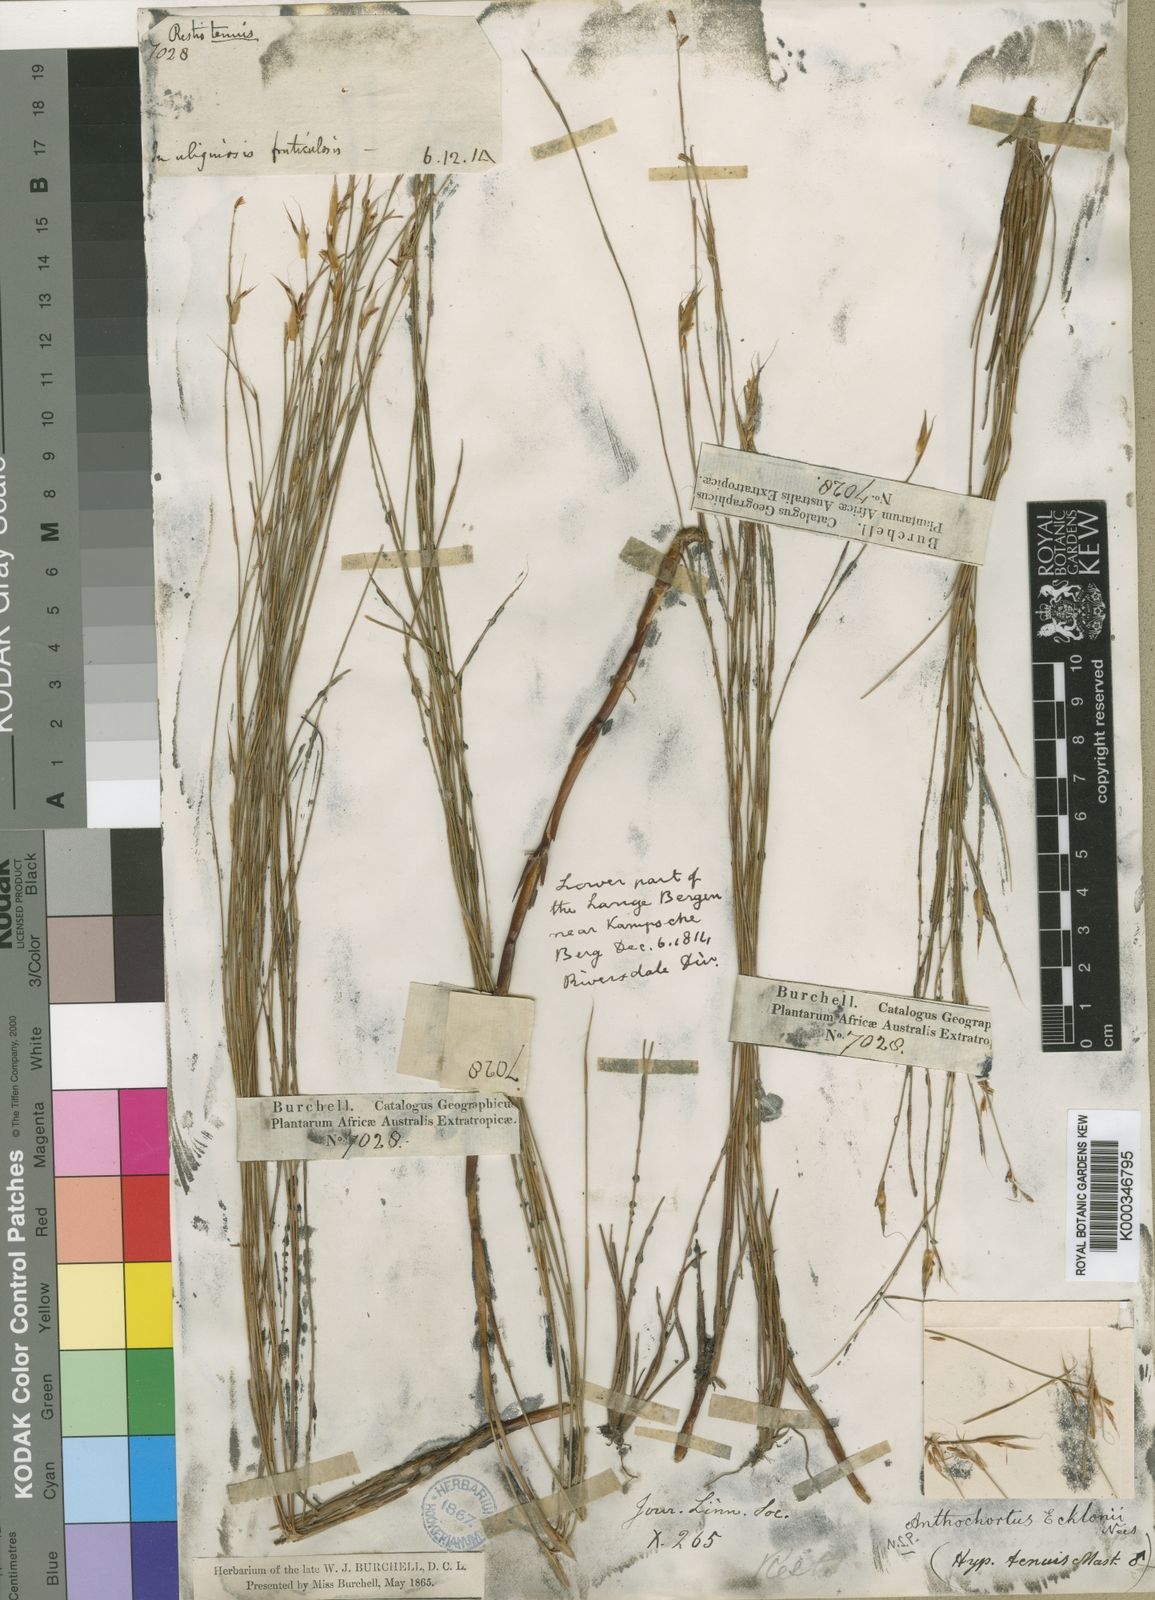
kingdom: Plantae
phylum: Tracheophyta
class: Liliopsida
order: Poales
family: Restionaceae
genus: Anthochortus
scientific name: Anthochortus ecklonii
